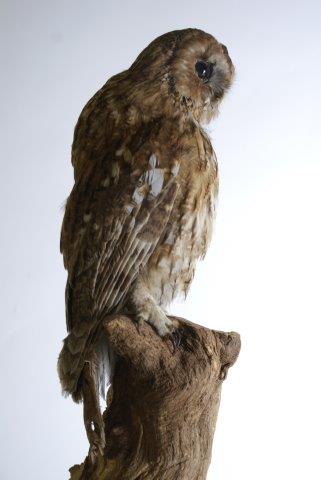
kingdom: Animalia
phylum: Chordata
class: Aves
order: Strigiformes
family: Strigidae
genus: Strix
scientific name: Strix aluco
